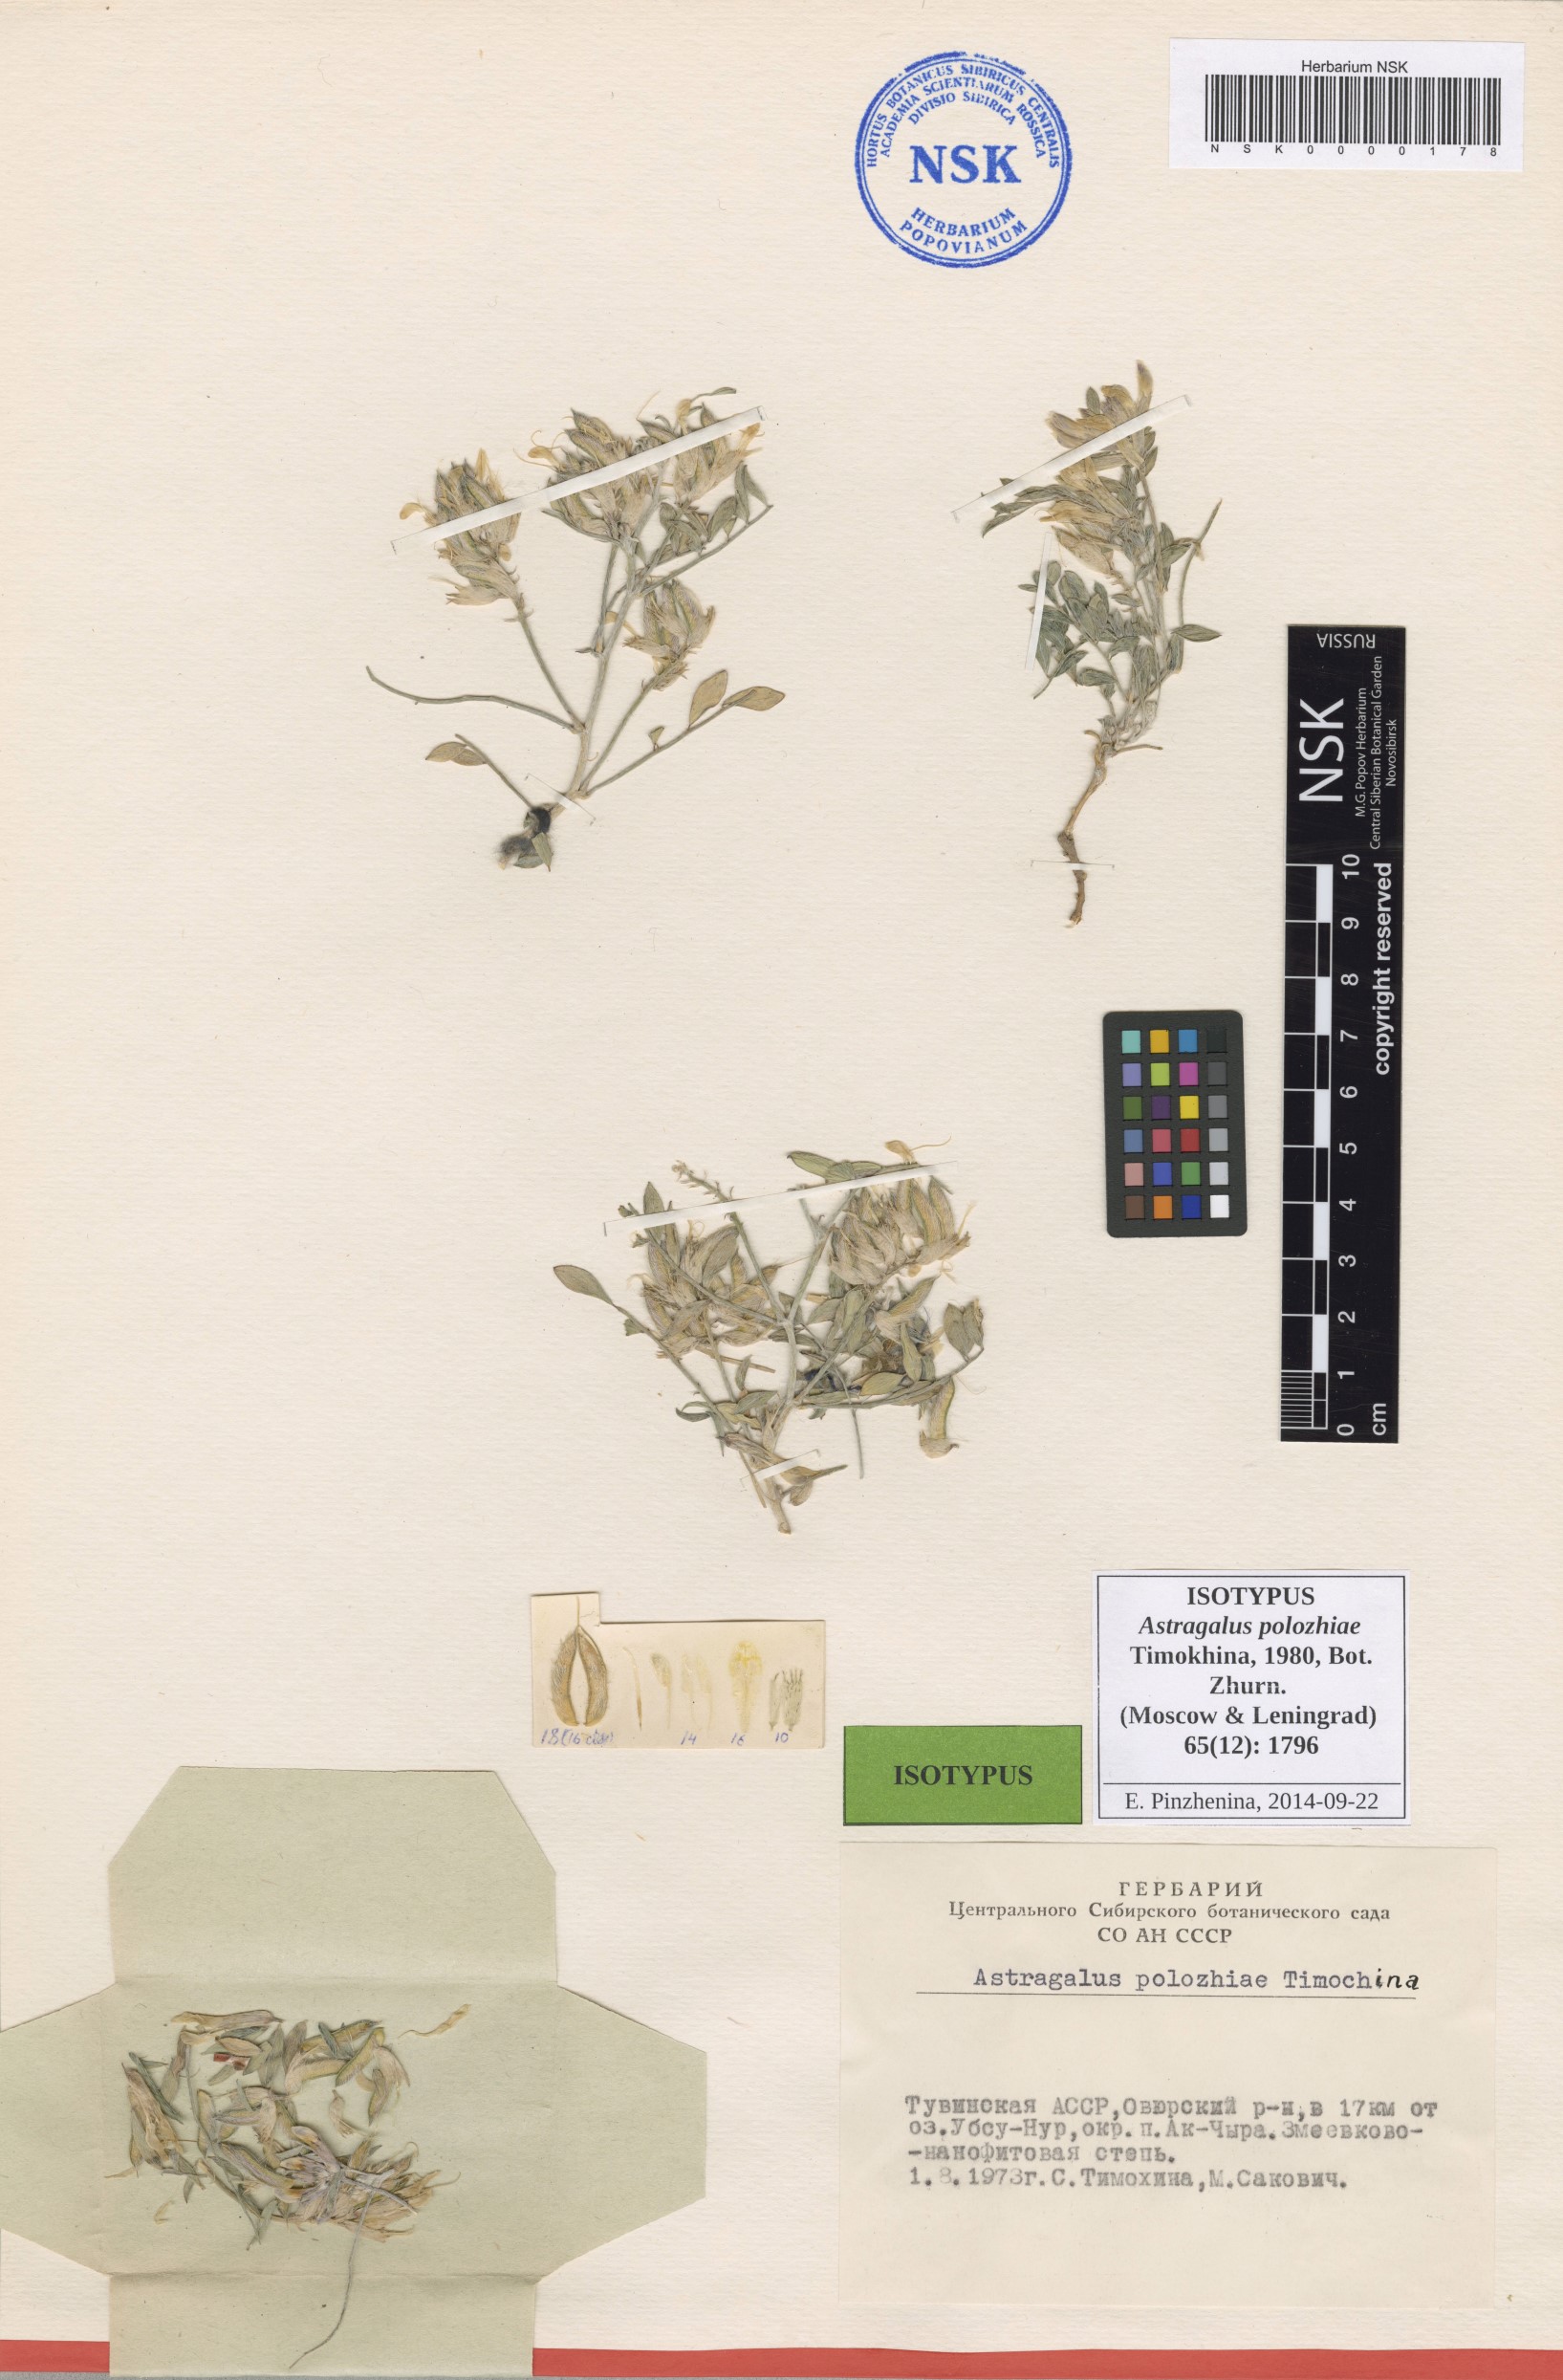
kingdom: Plantae
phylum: Tracheophyta
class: Magnoliopsida
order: Fabales
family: Fabaceae
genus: Astragalus
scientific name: Astragalus polozhiae
